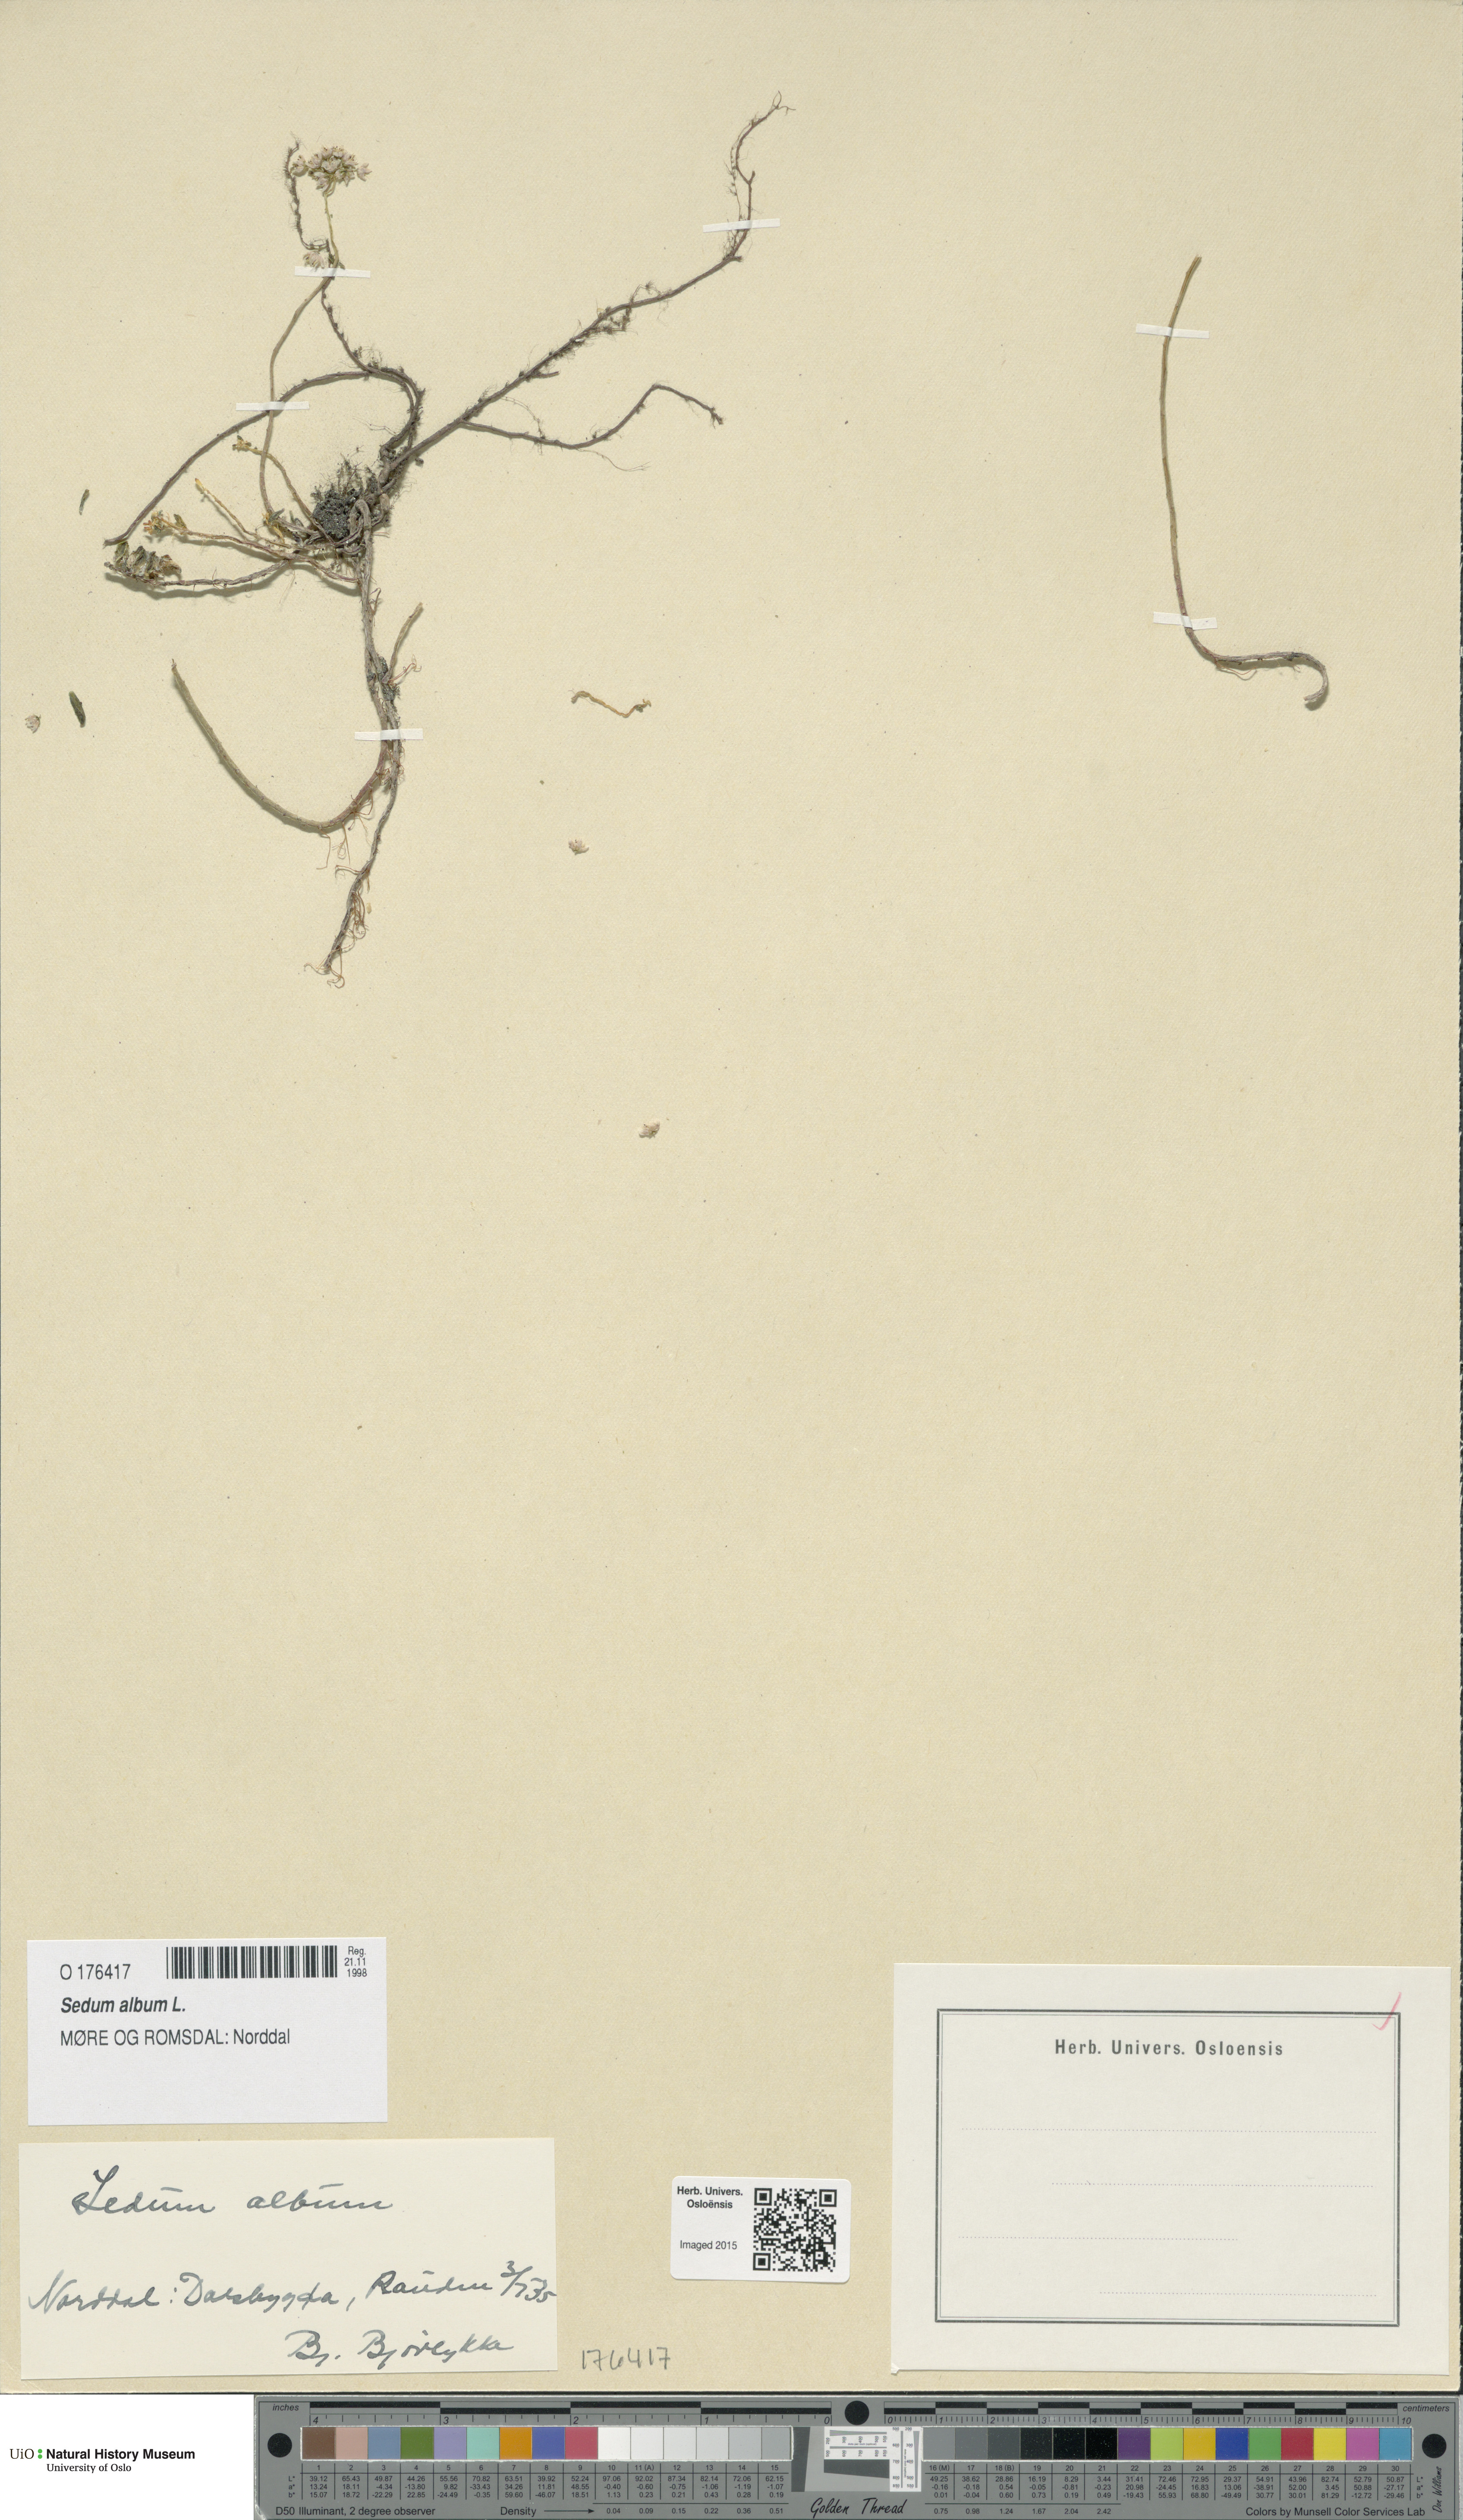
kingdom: Plantae
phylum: Tracheophyta
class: Magnoliopsida
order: Saxifragales
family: Crassulaceae
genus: Sedum
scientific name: Sedum album
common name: White stonecrop
